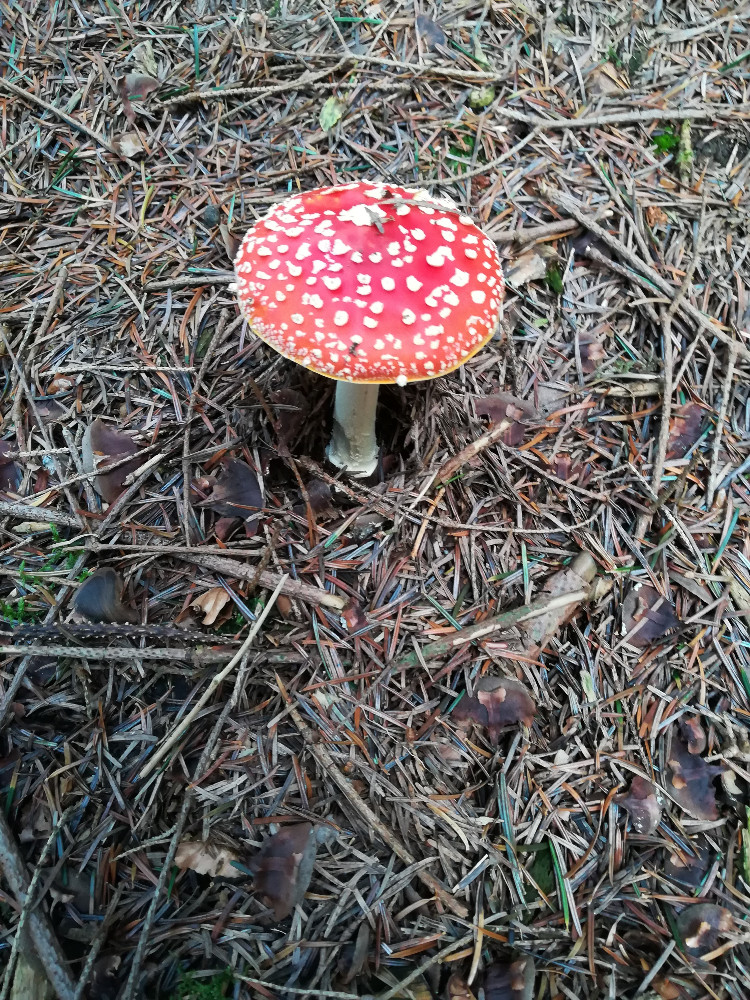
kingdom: Fungi
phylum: Basidiomycota
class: Agaricomycetes
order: Agaricales
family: Amanitaceae
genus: Amanita
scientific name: Amanita muscaria
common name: rød fluesvamp
